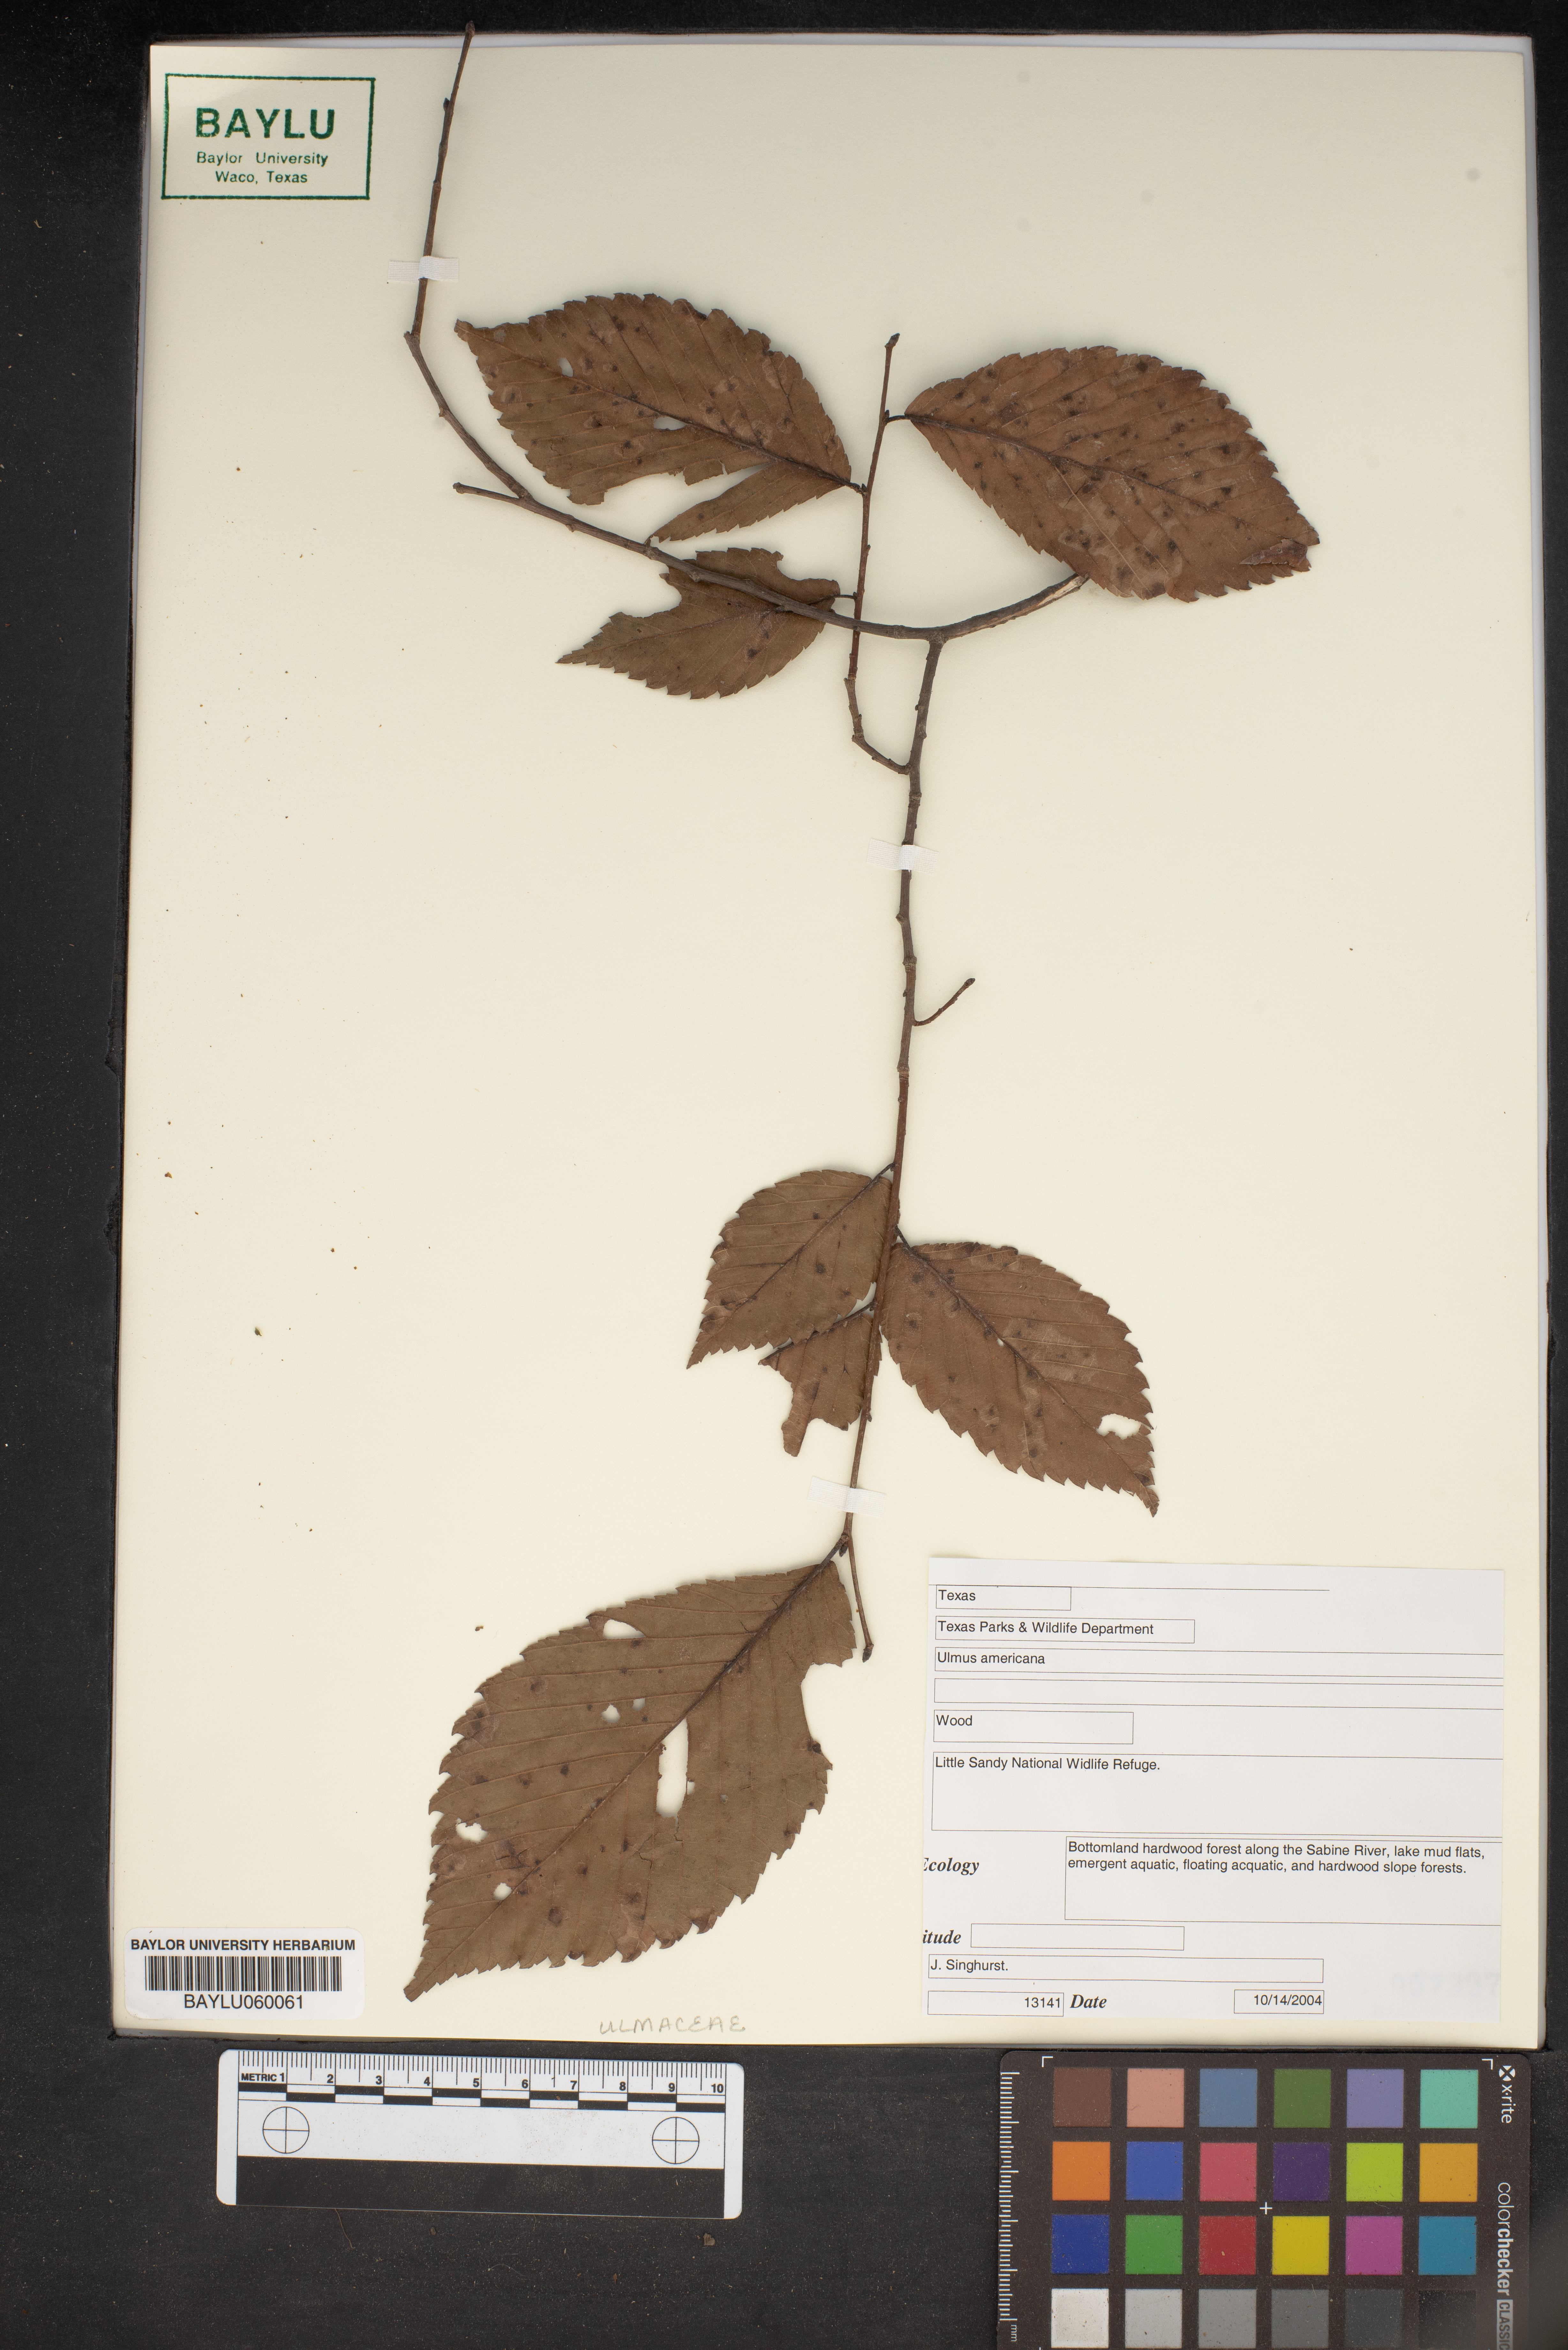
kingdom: Plantae
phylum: Tracheophyta
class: Magnoliopsida
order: Rosales
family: Ulmaceae
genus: Ulmus
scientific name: Ulmus americana
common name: American elm
